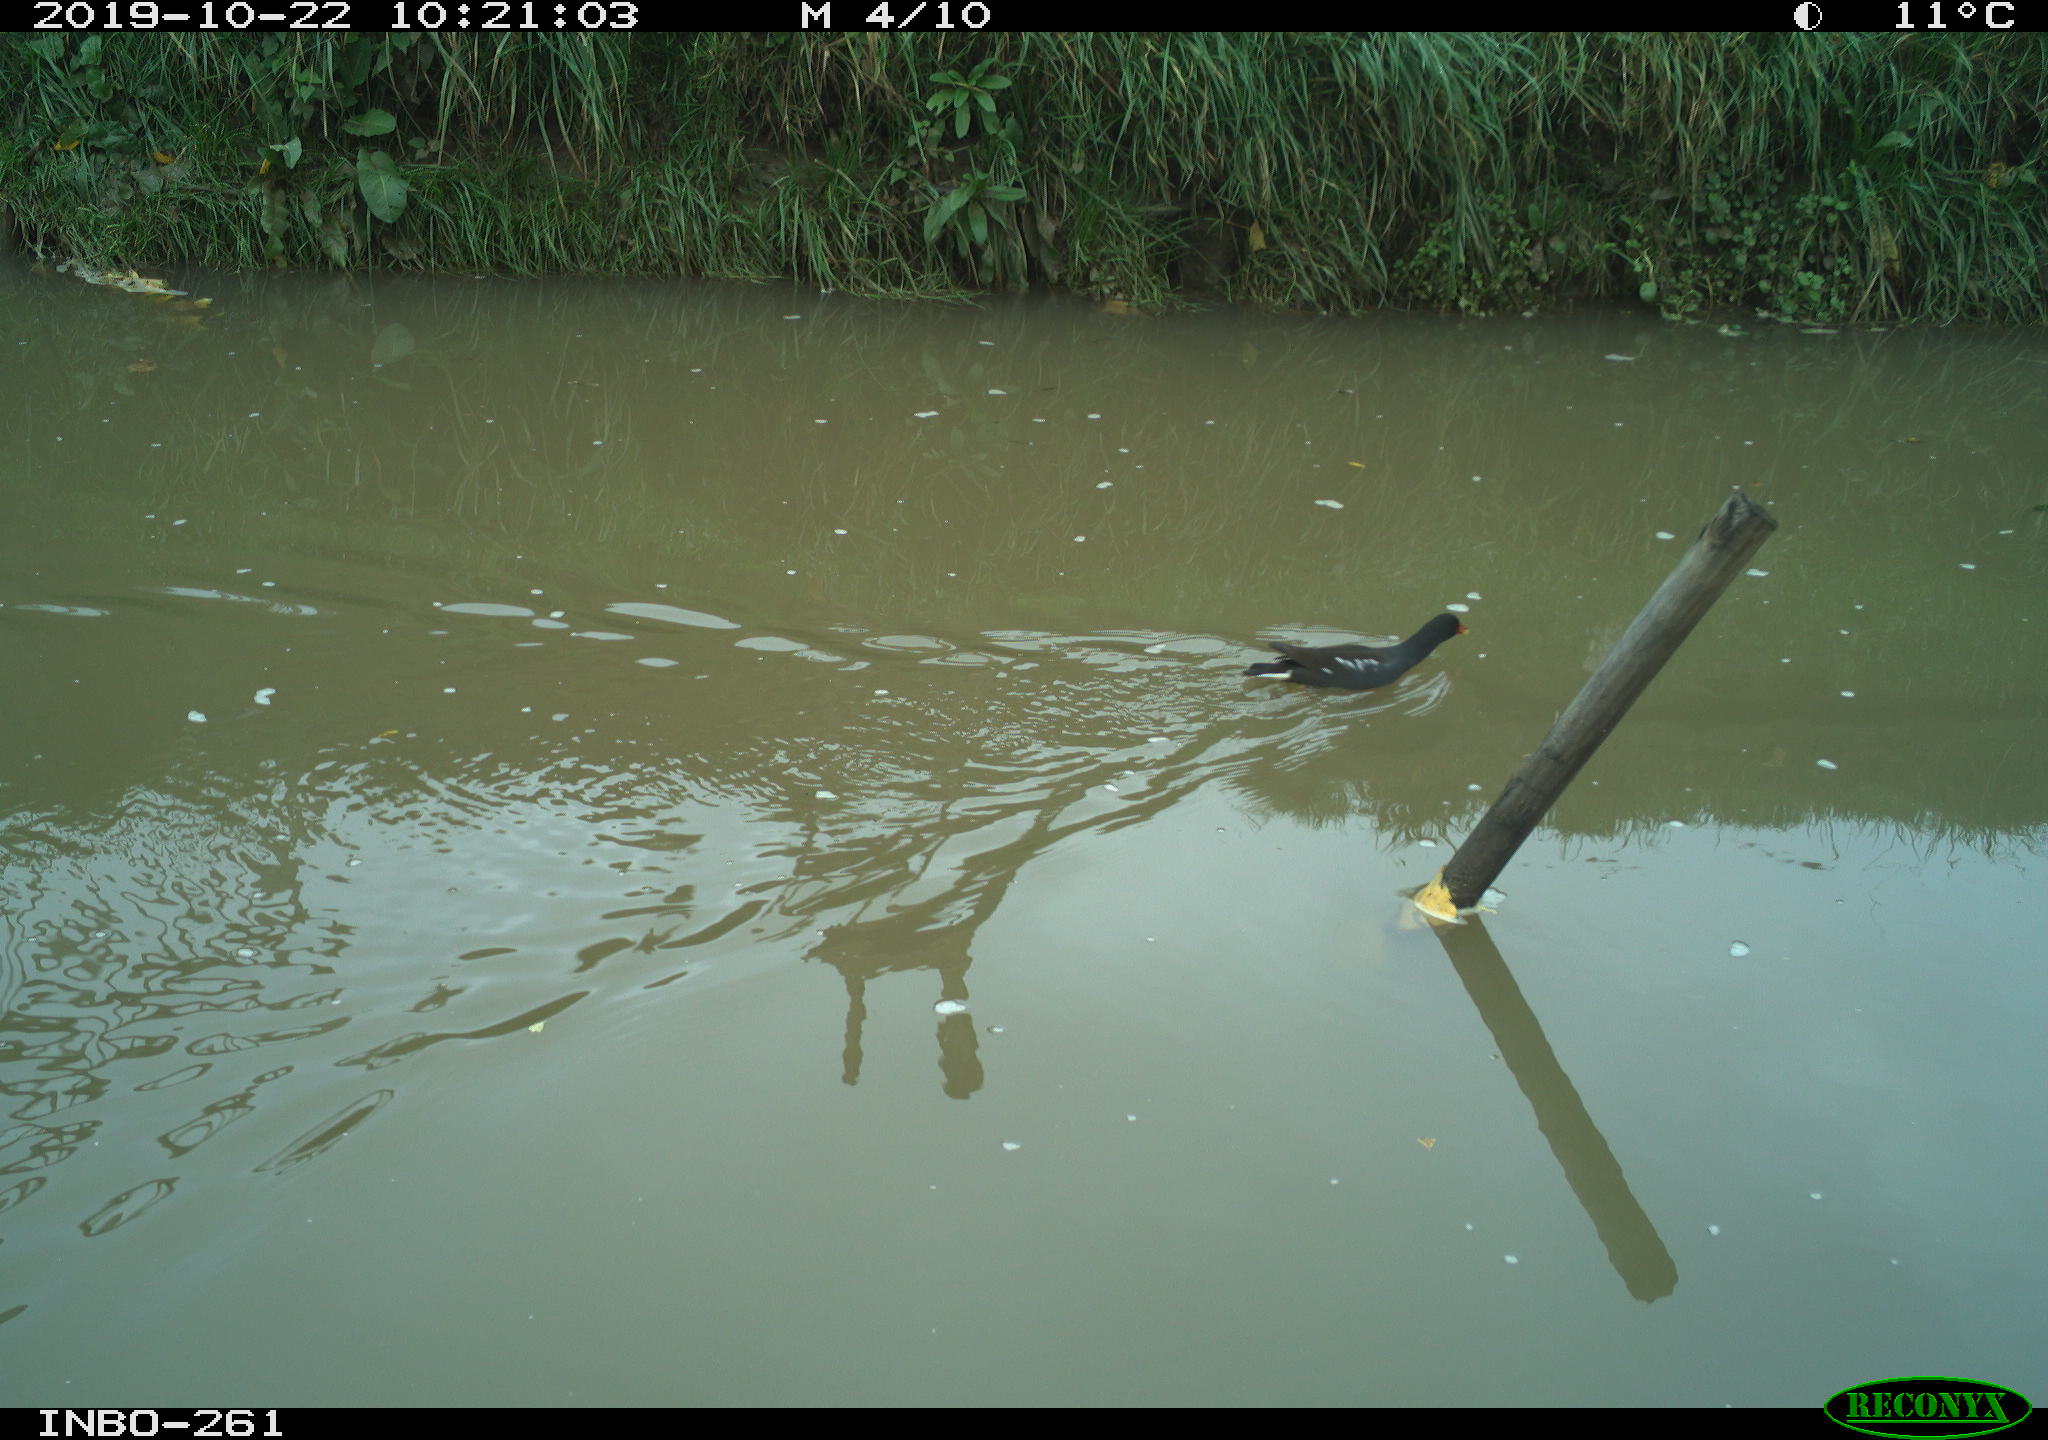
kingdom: Animalia
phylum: Chordata
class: Aves
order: Gruiformes
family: Rallidae
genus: Gallinula
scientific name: Gallinula chloropus
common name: Common moorhen
